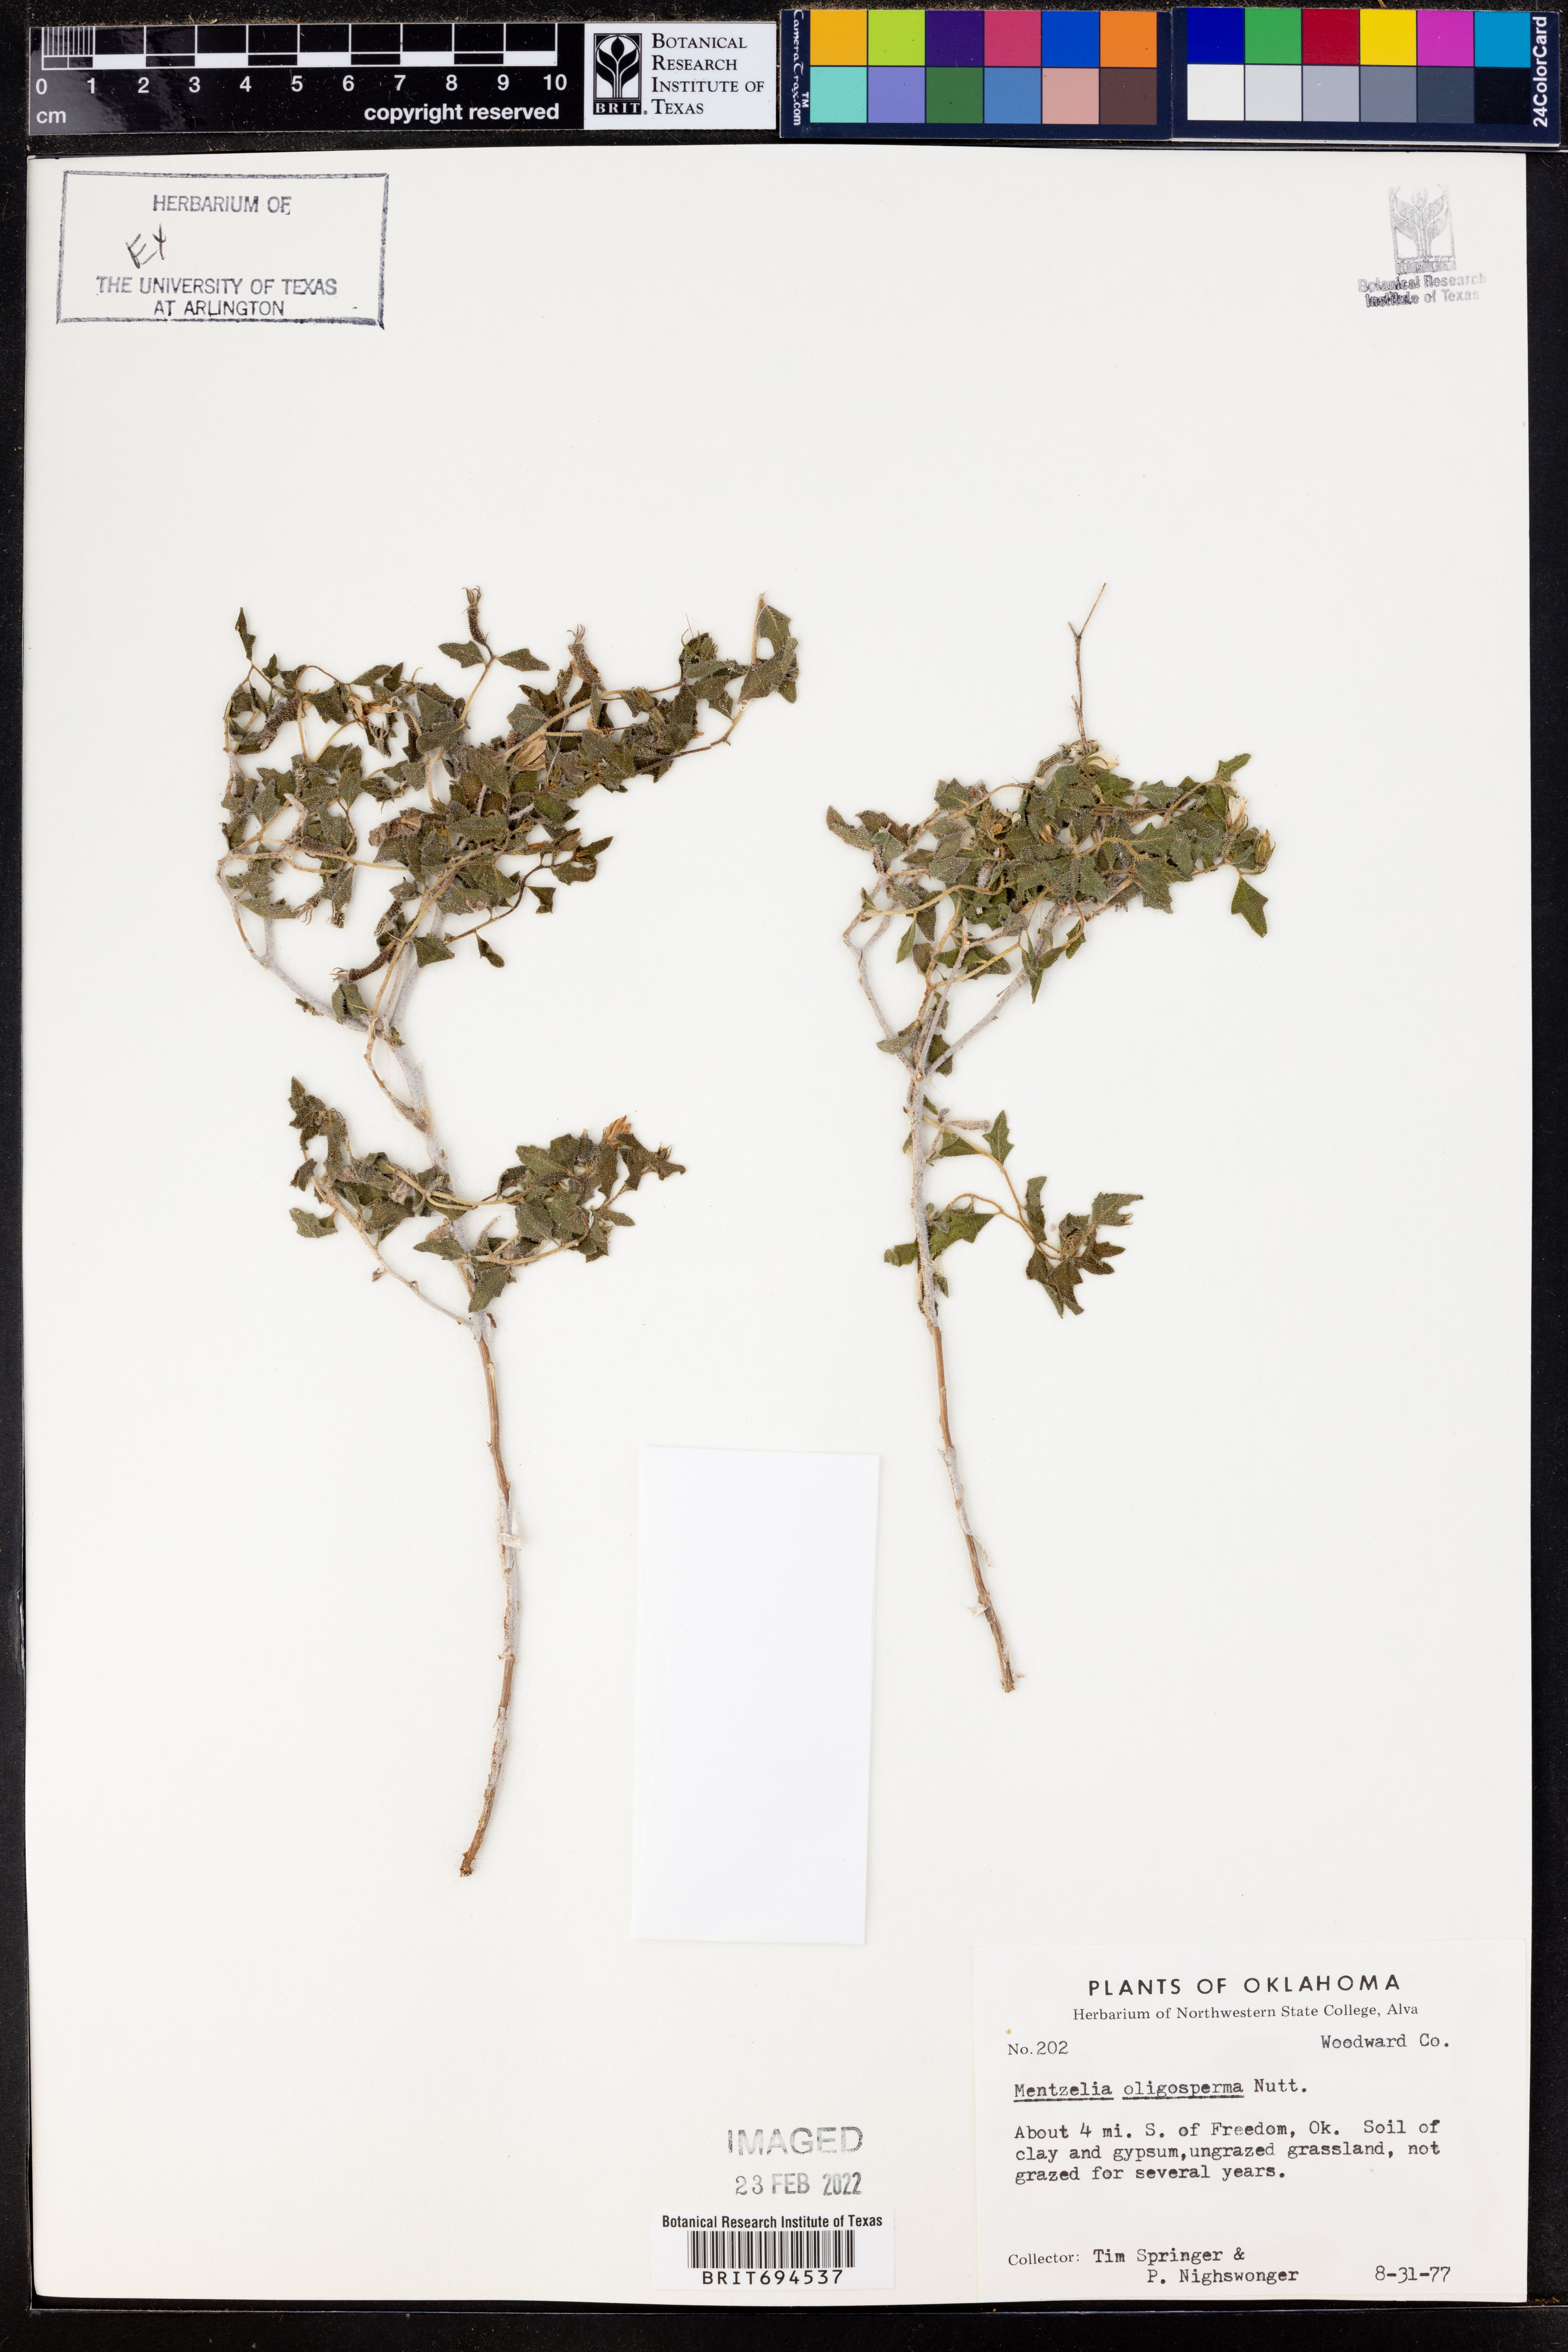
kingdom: Plantae
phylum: Tracheophyta
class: Magnoliopsida
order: Cornales
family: Loasaceae
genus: Mentzelia
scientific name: Mentzelia oligosperma
